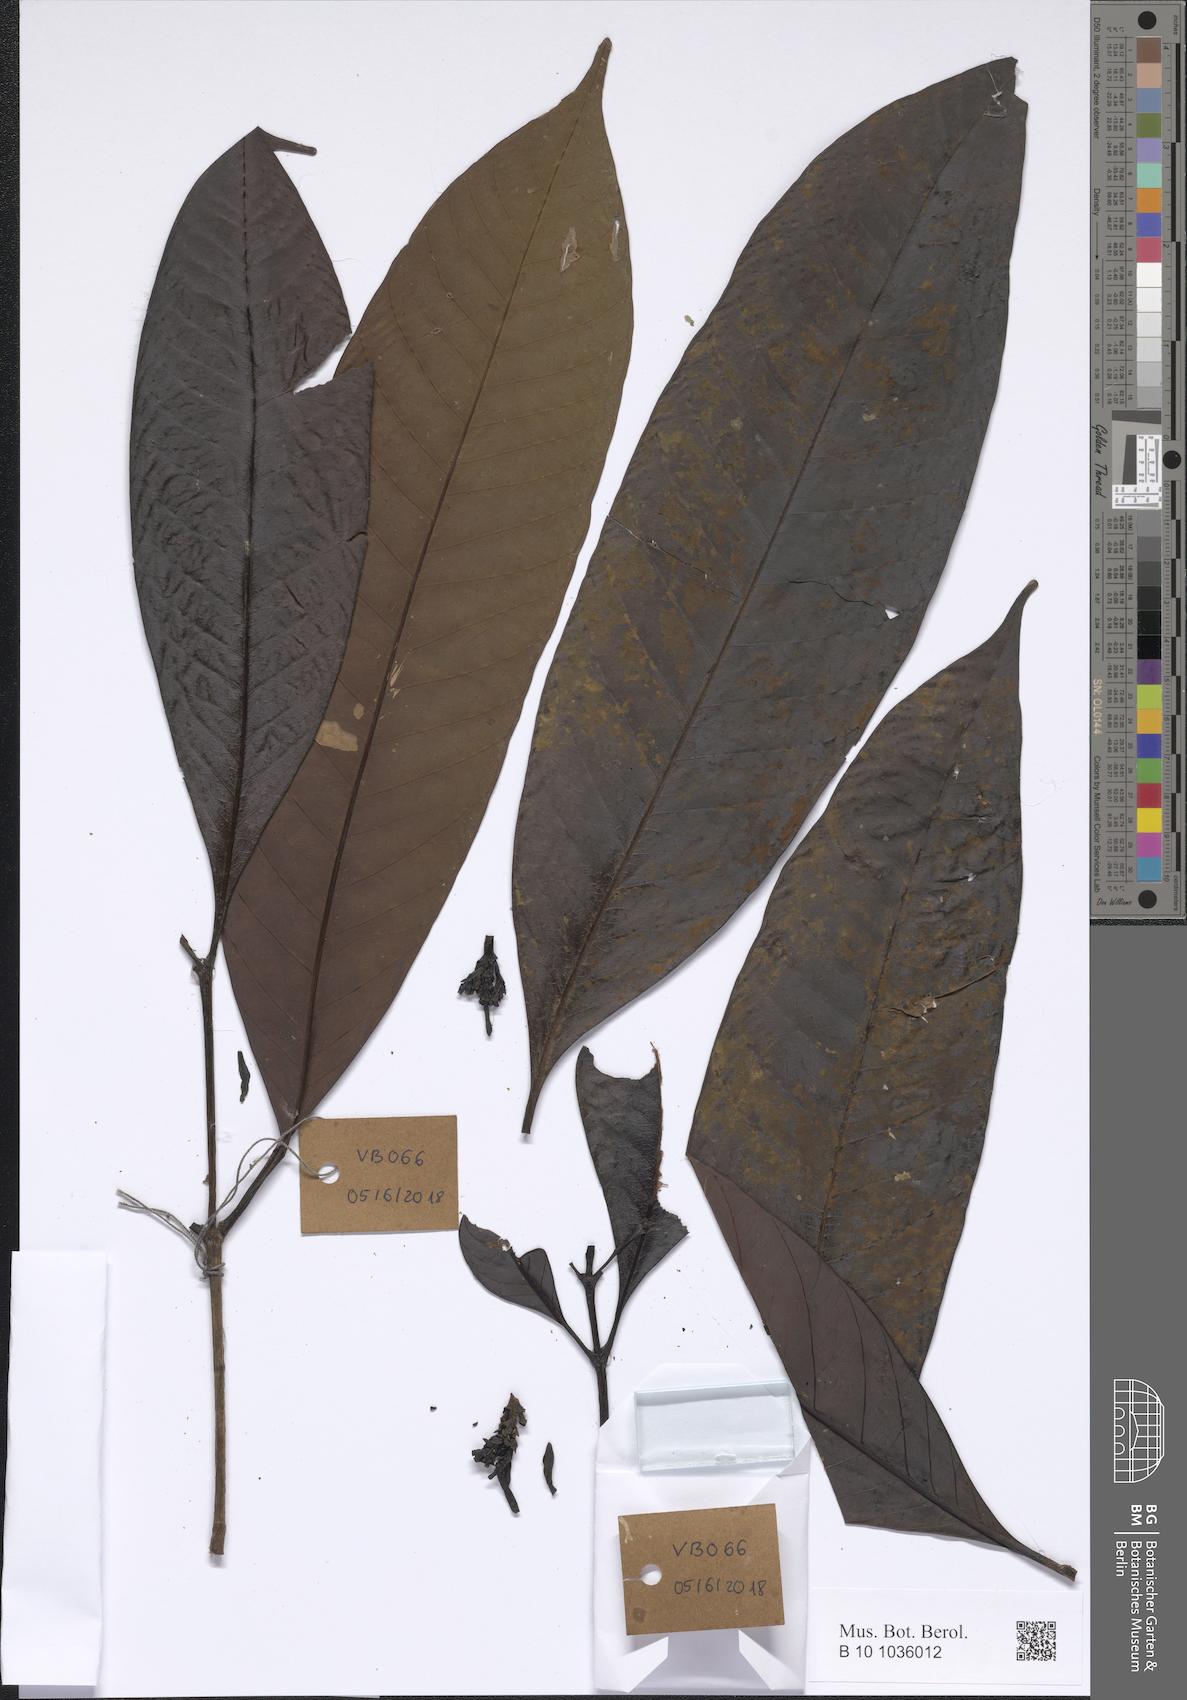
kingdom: Plantae
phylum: Tracheophyta
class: Magnoliopsida
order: Gentianales
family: Apocynaceae
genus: Kopsia
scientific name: Kopsia fruticosa
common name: Shrub-vinca
